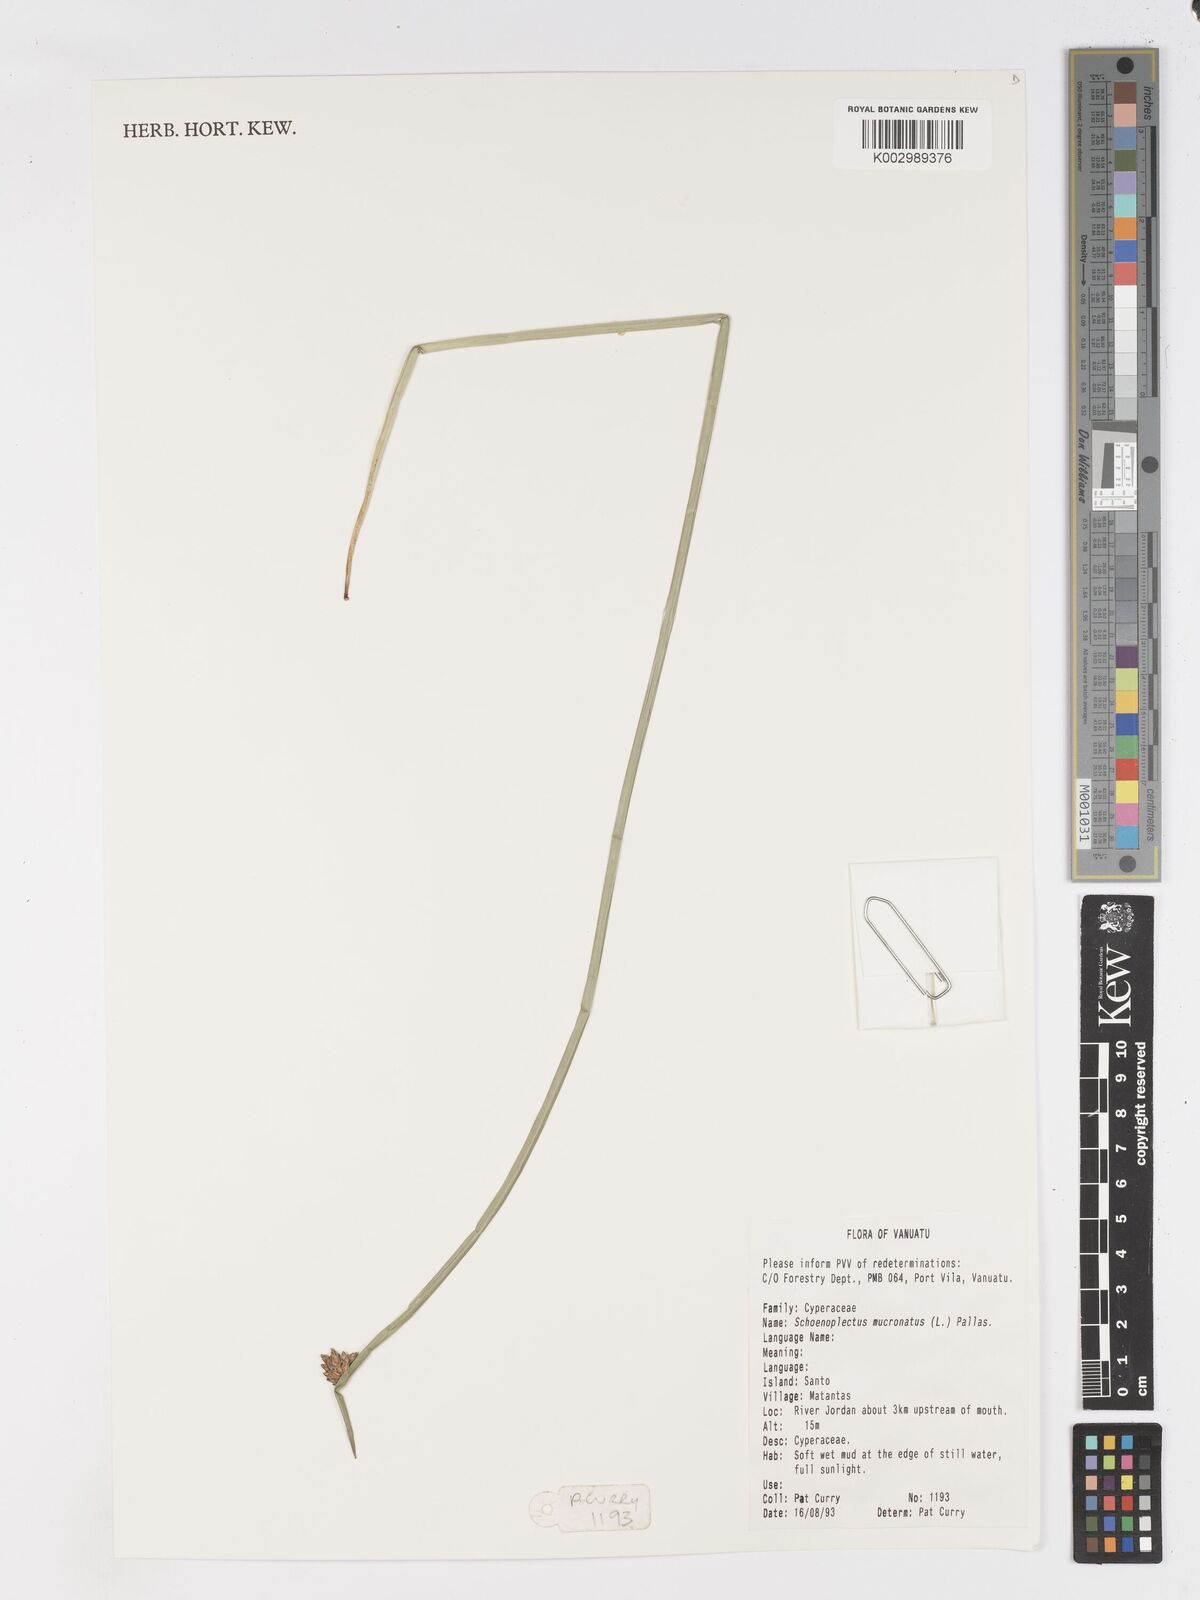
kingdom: Plantae
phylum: Tracheophyta
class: Liliopsida
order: Poales
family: Cyperaceae
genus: Schoenoplectiella
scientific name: Schoenoplectiella mucronata
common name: Bog bulrush
